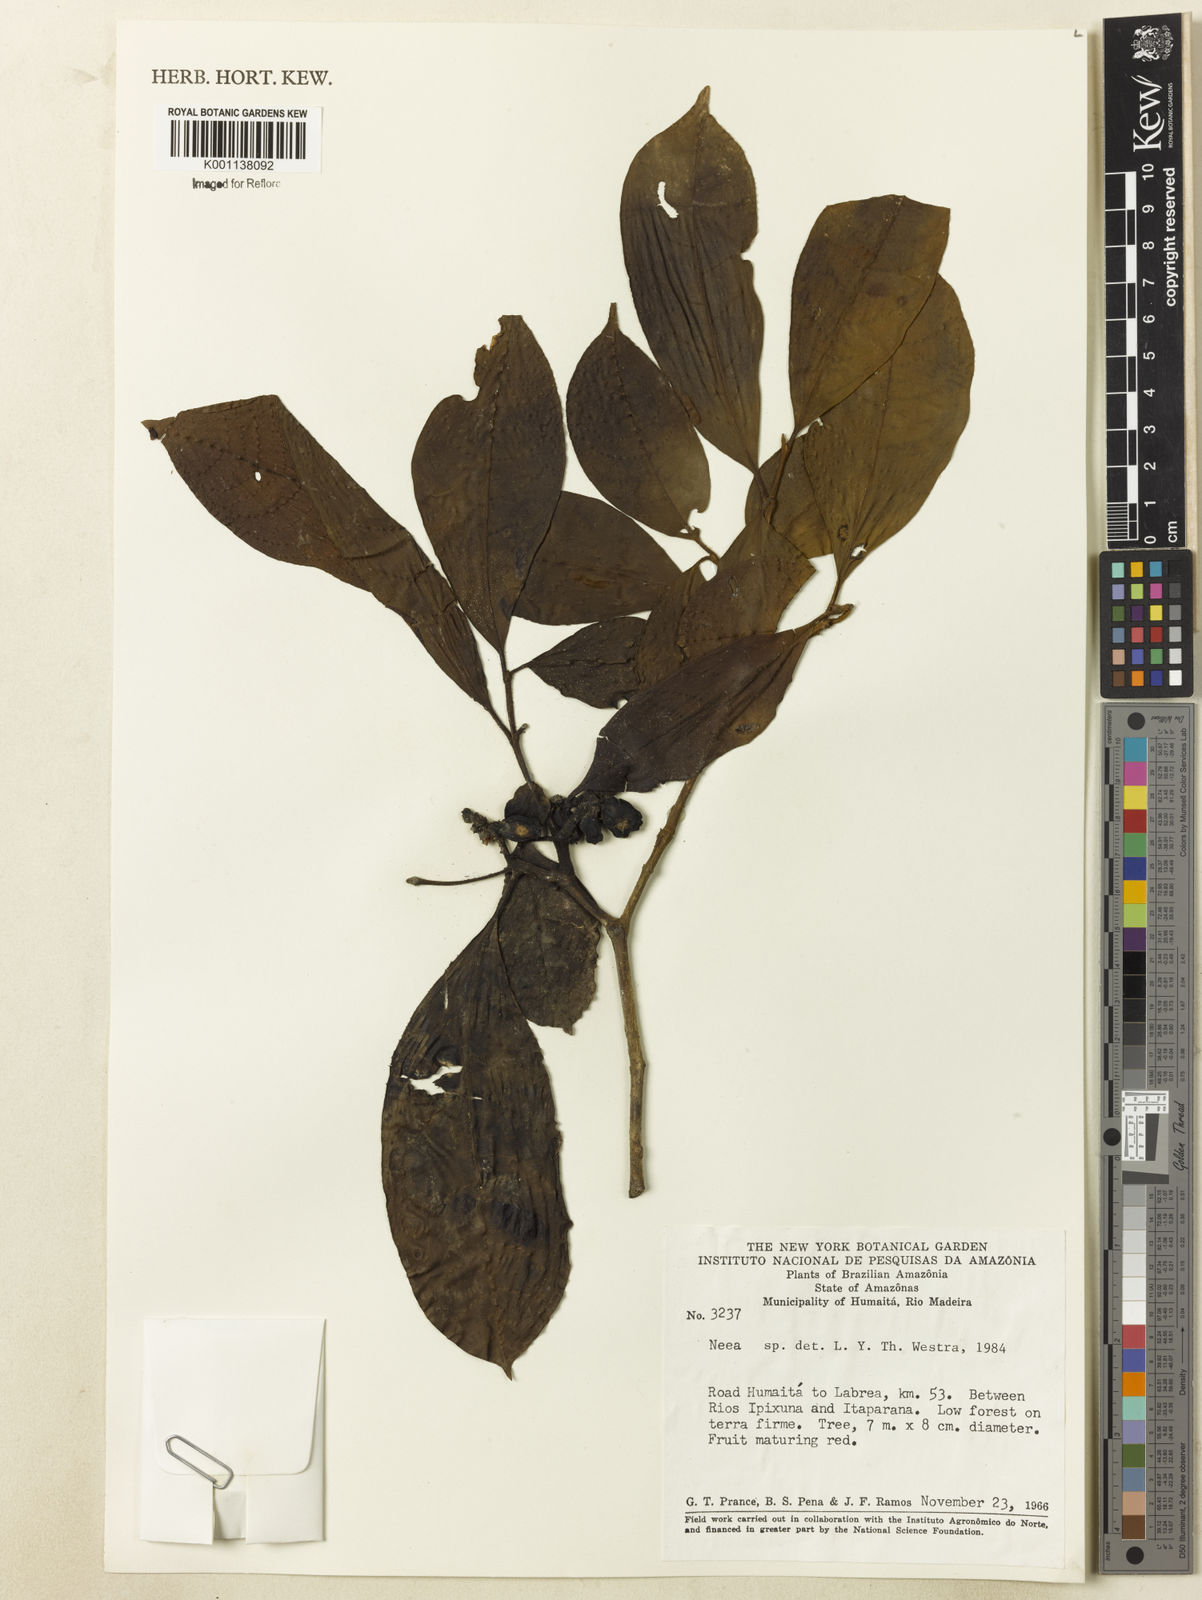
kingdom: Plantae
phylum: Tracheophyta
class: Magnoliopsida
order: Caryophyllales
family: Nyctaginaceae
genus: Neea
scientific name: Neea
